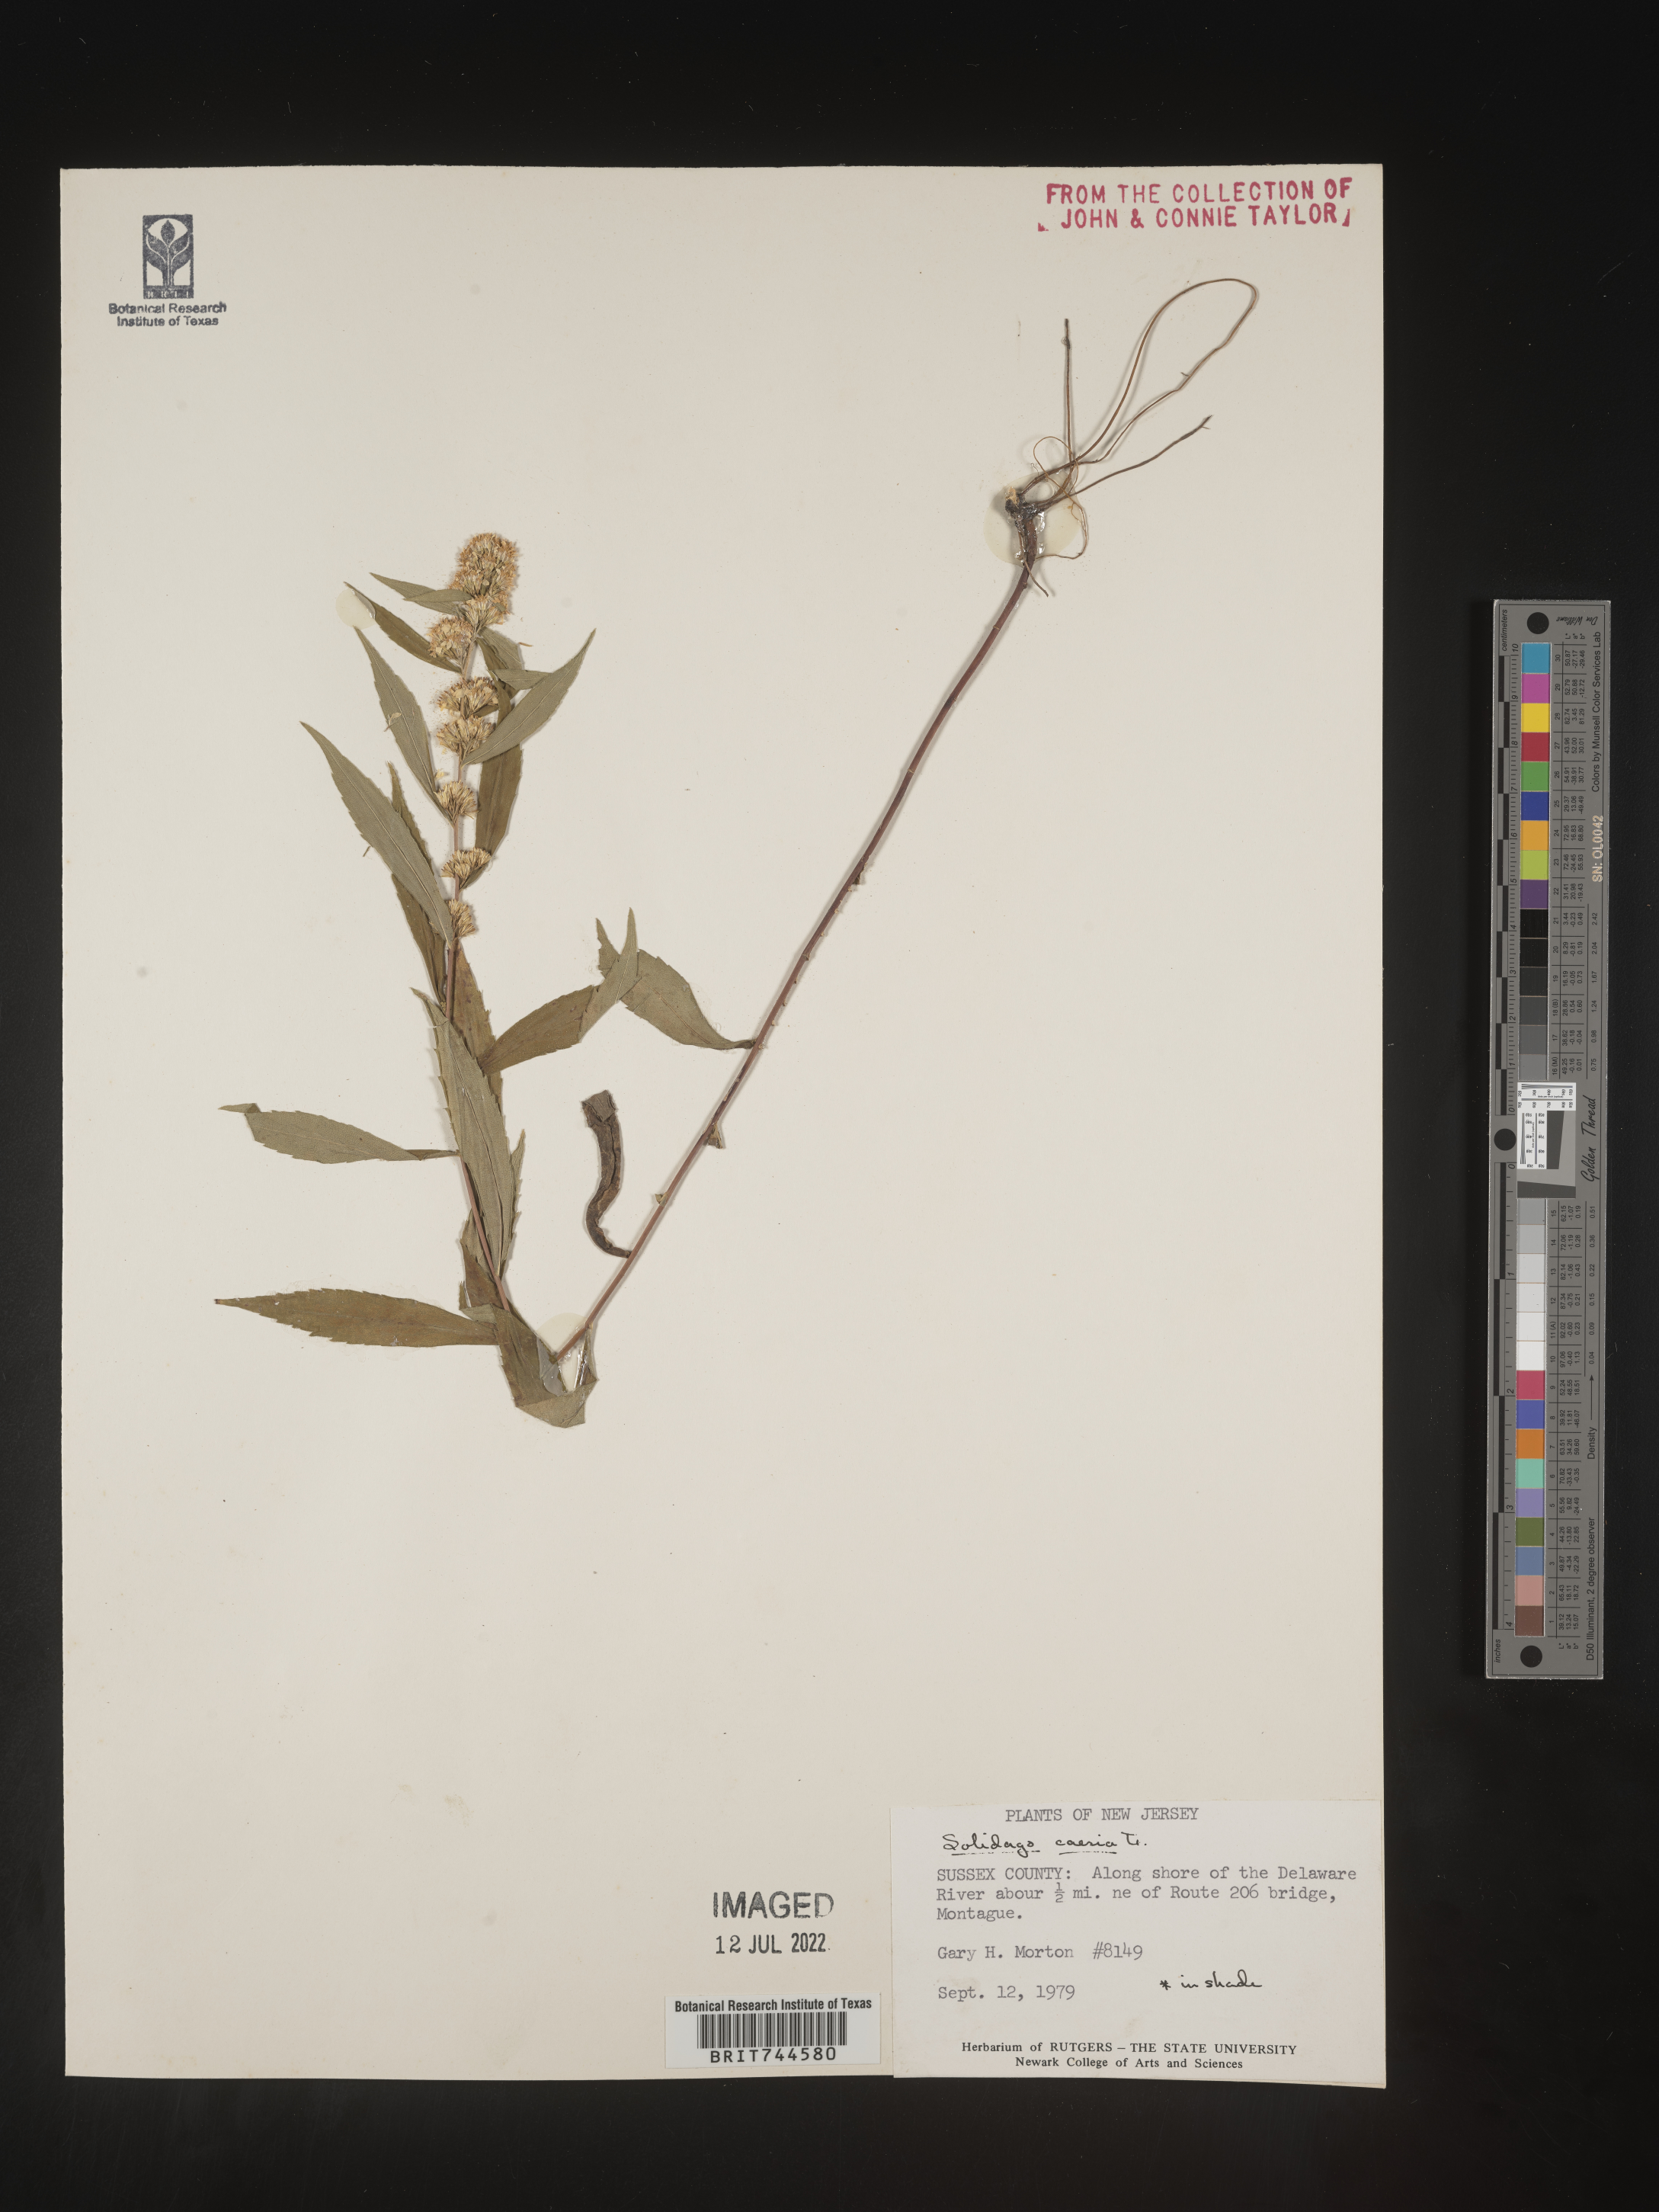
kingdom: Plantae
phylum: Tracheophyta
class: Magnoliopsida
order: Asterales
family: Asteraceae
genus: Solidago
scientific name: Solidago caesia
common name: Woodland goldenrod
